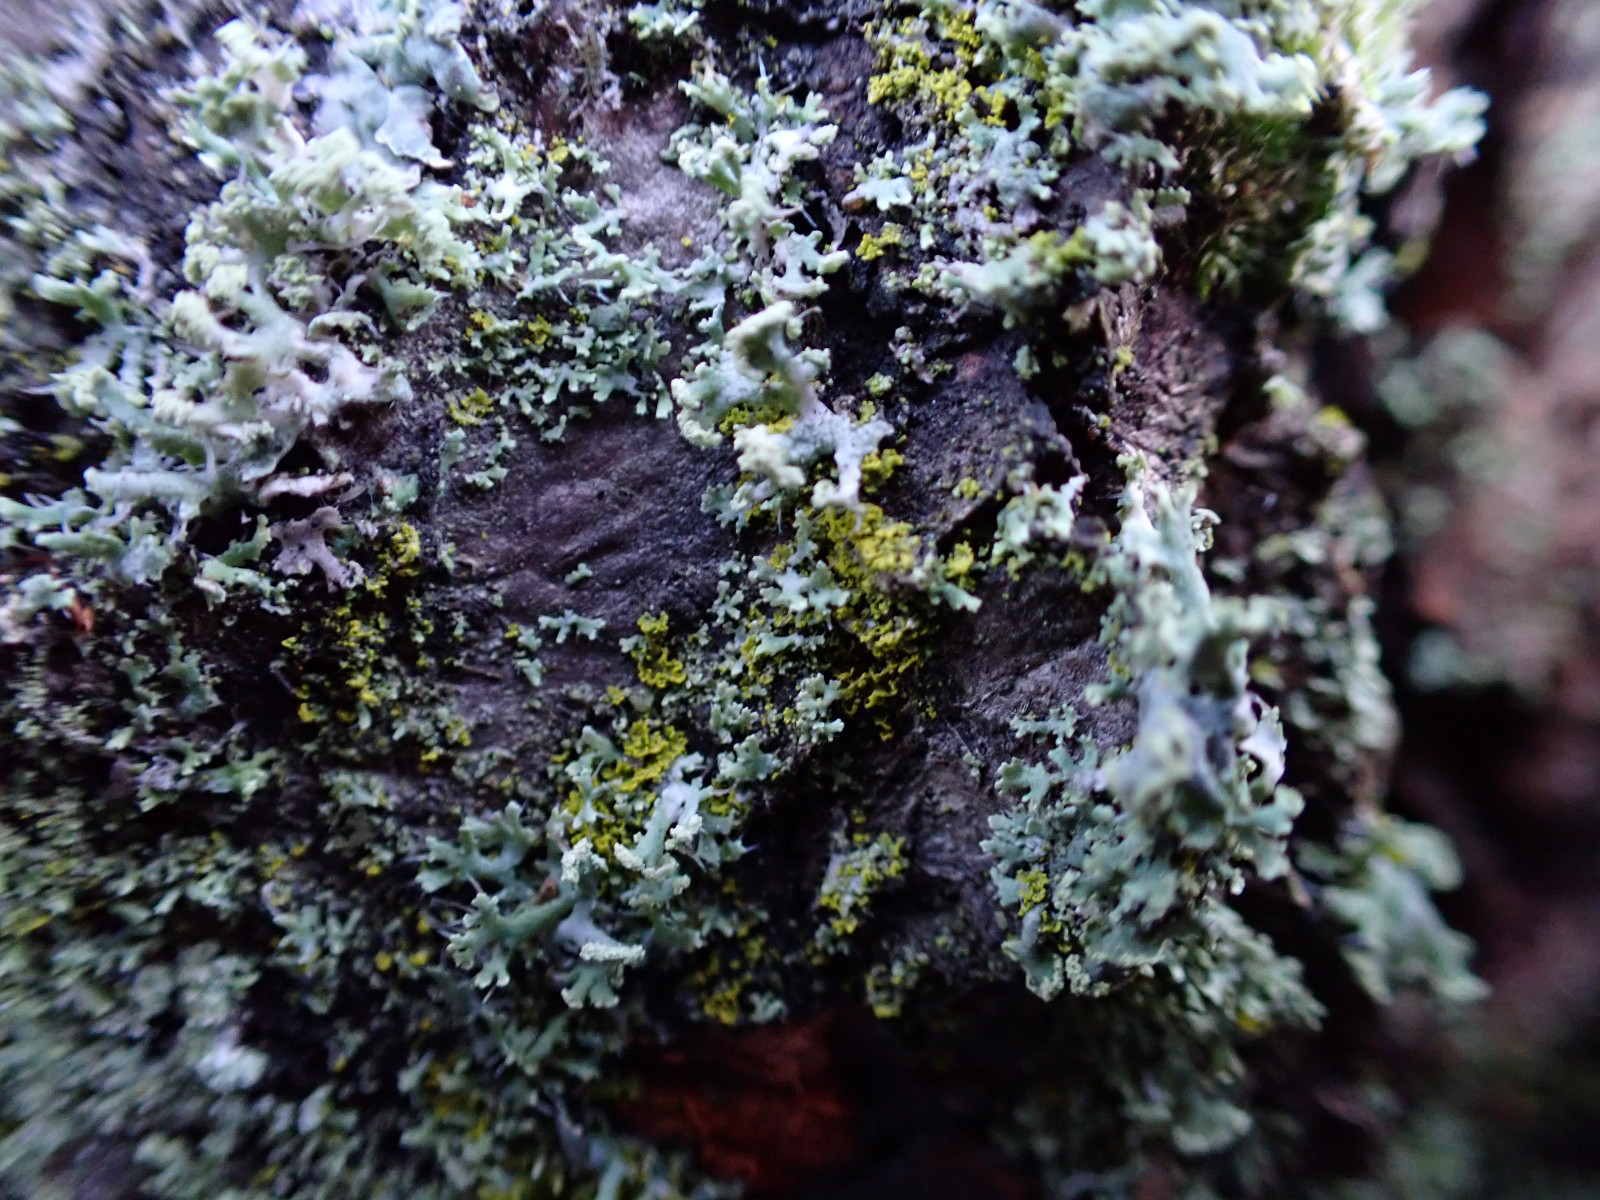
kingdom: Fungi
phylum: Ascomycota
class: Candelariomycetes
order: Candelariales
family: Candelariaceae
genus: Candelaria
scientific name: Candelaria pacifica
